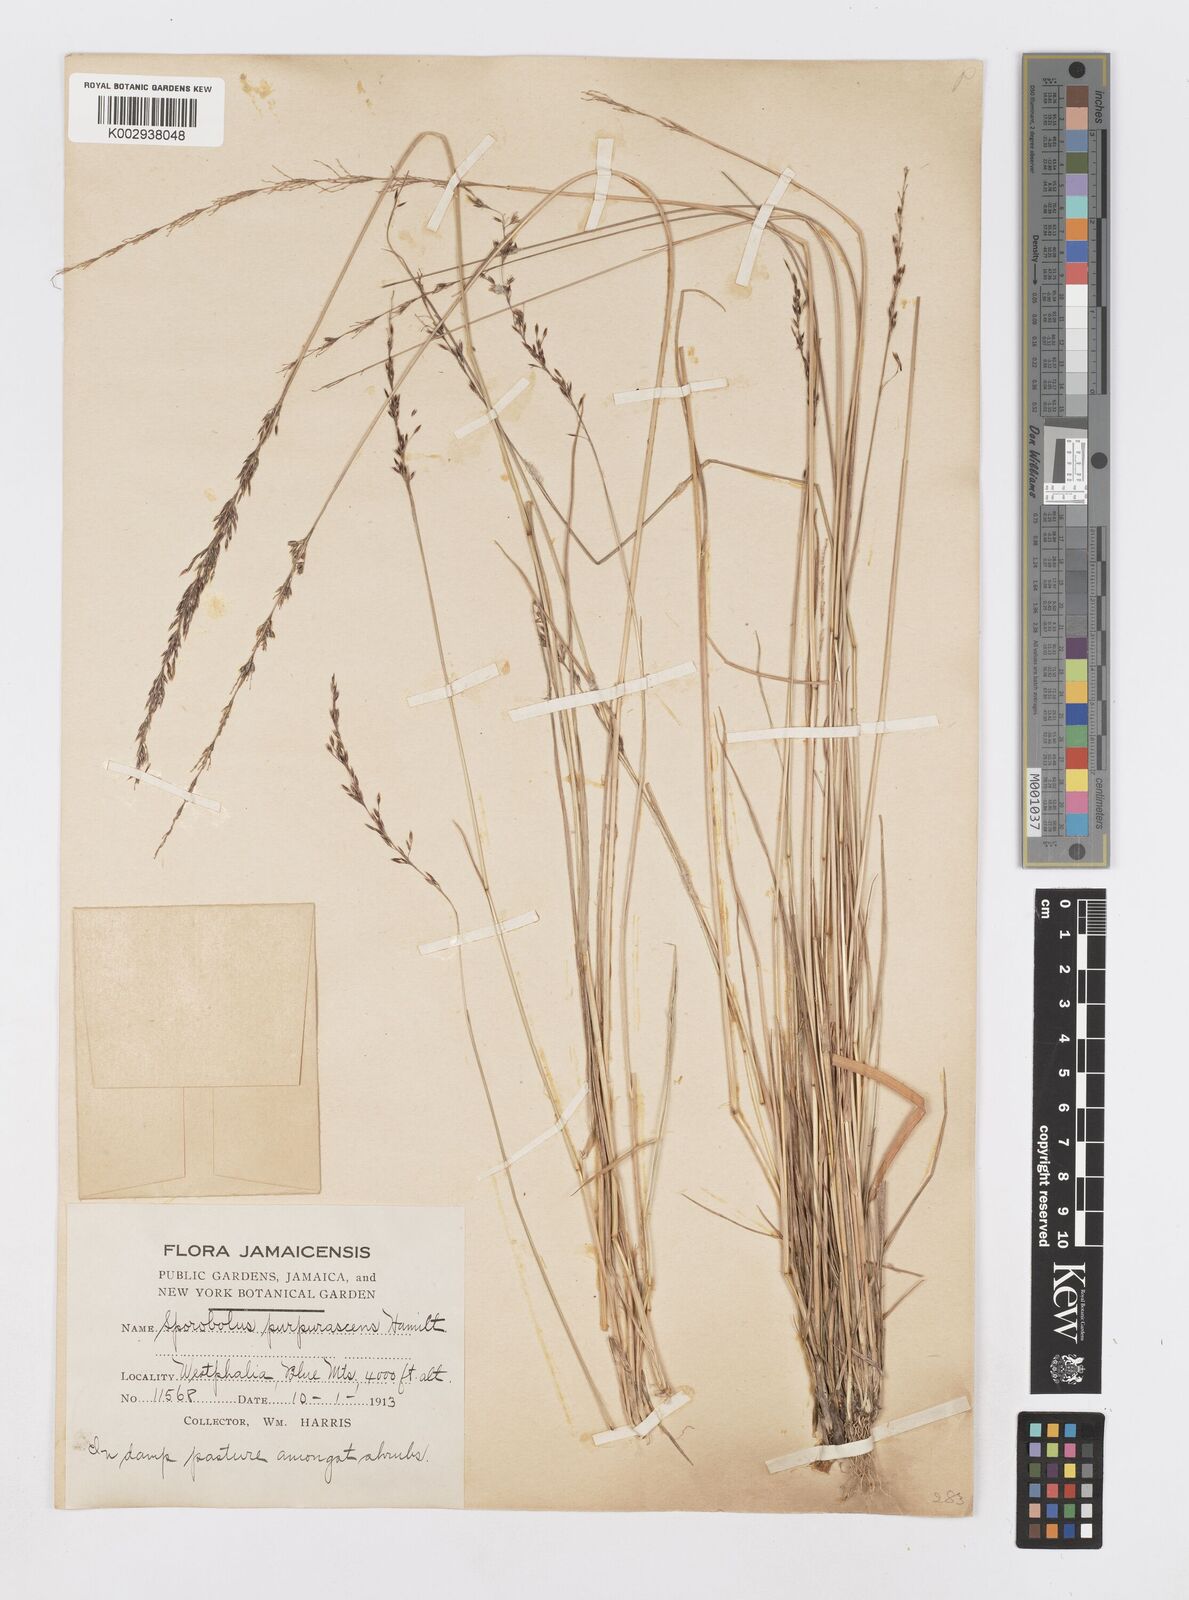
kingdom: Plantae
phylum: Tracheophyta
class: Liliopsida
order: Poales
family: Poaceae
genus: Sporobolus
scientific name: Sporobolus purpurascens
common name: Purple dropseed
